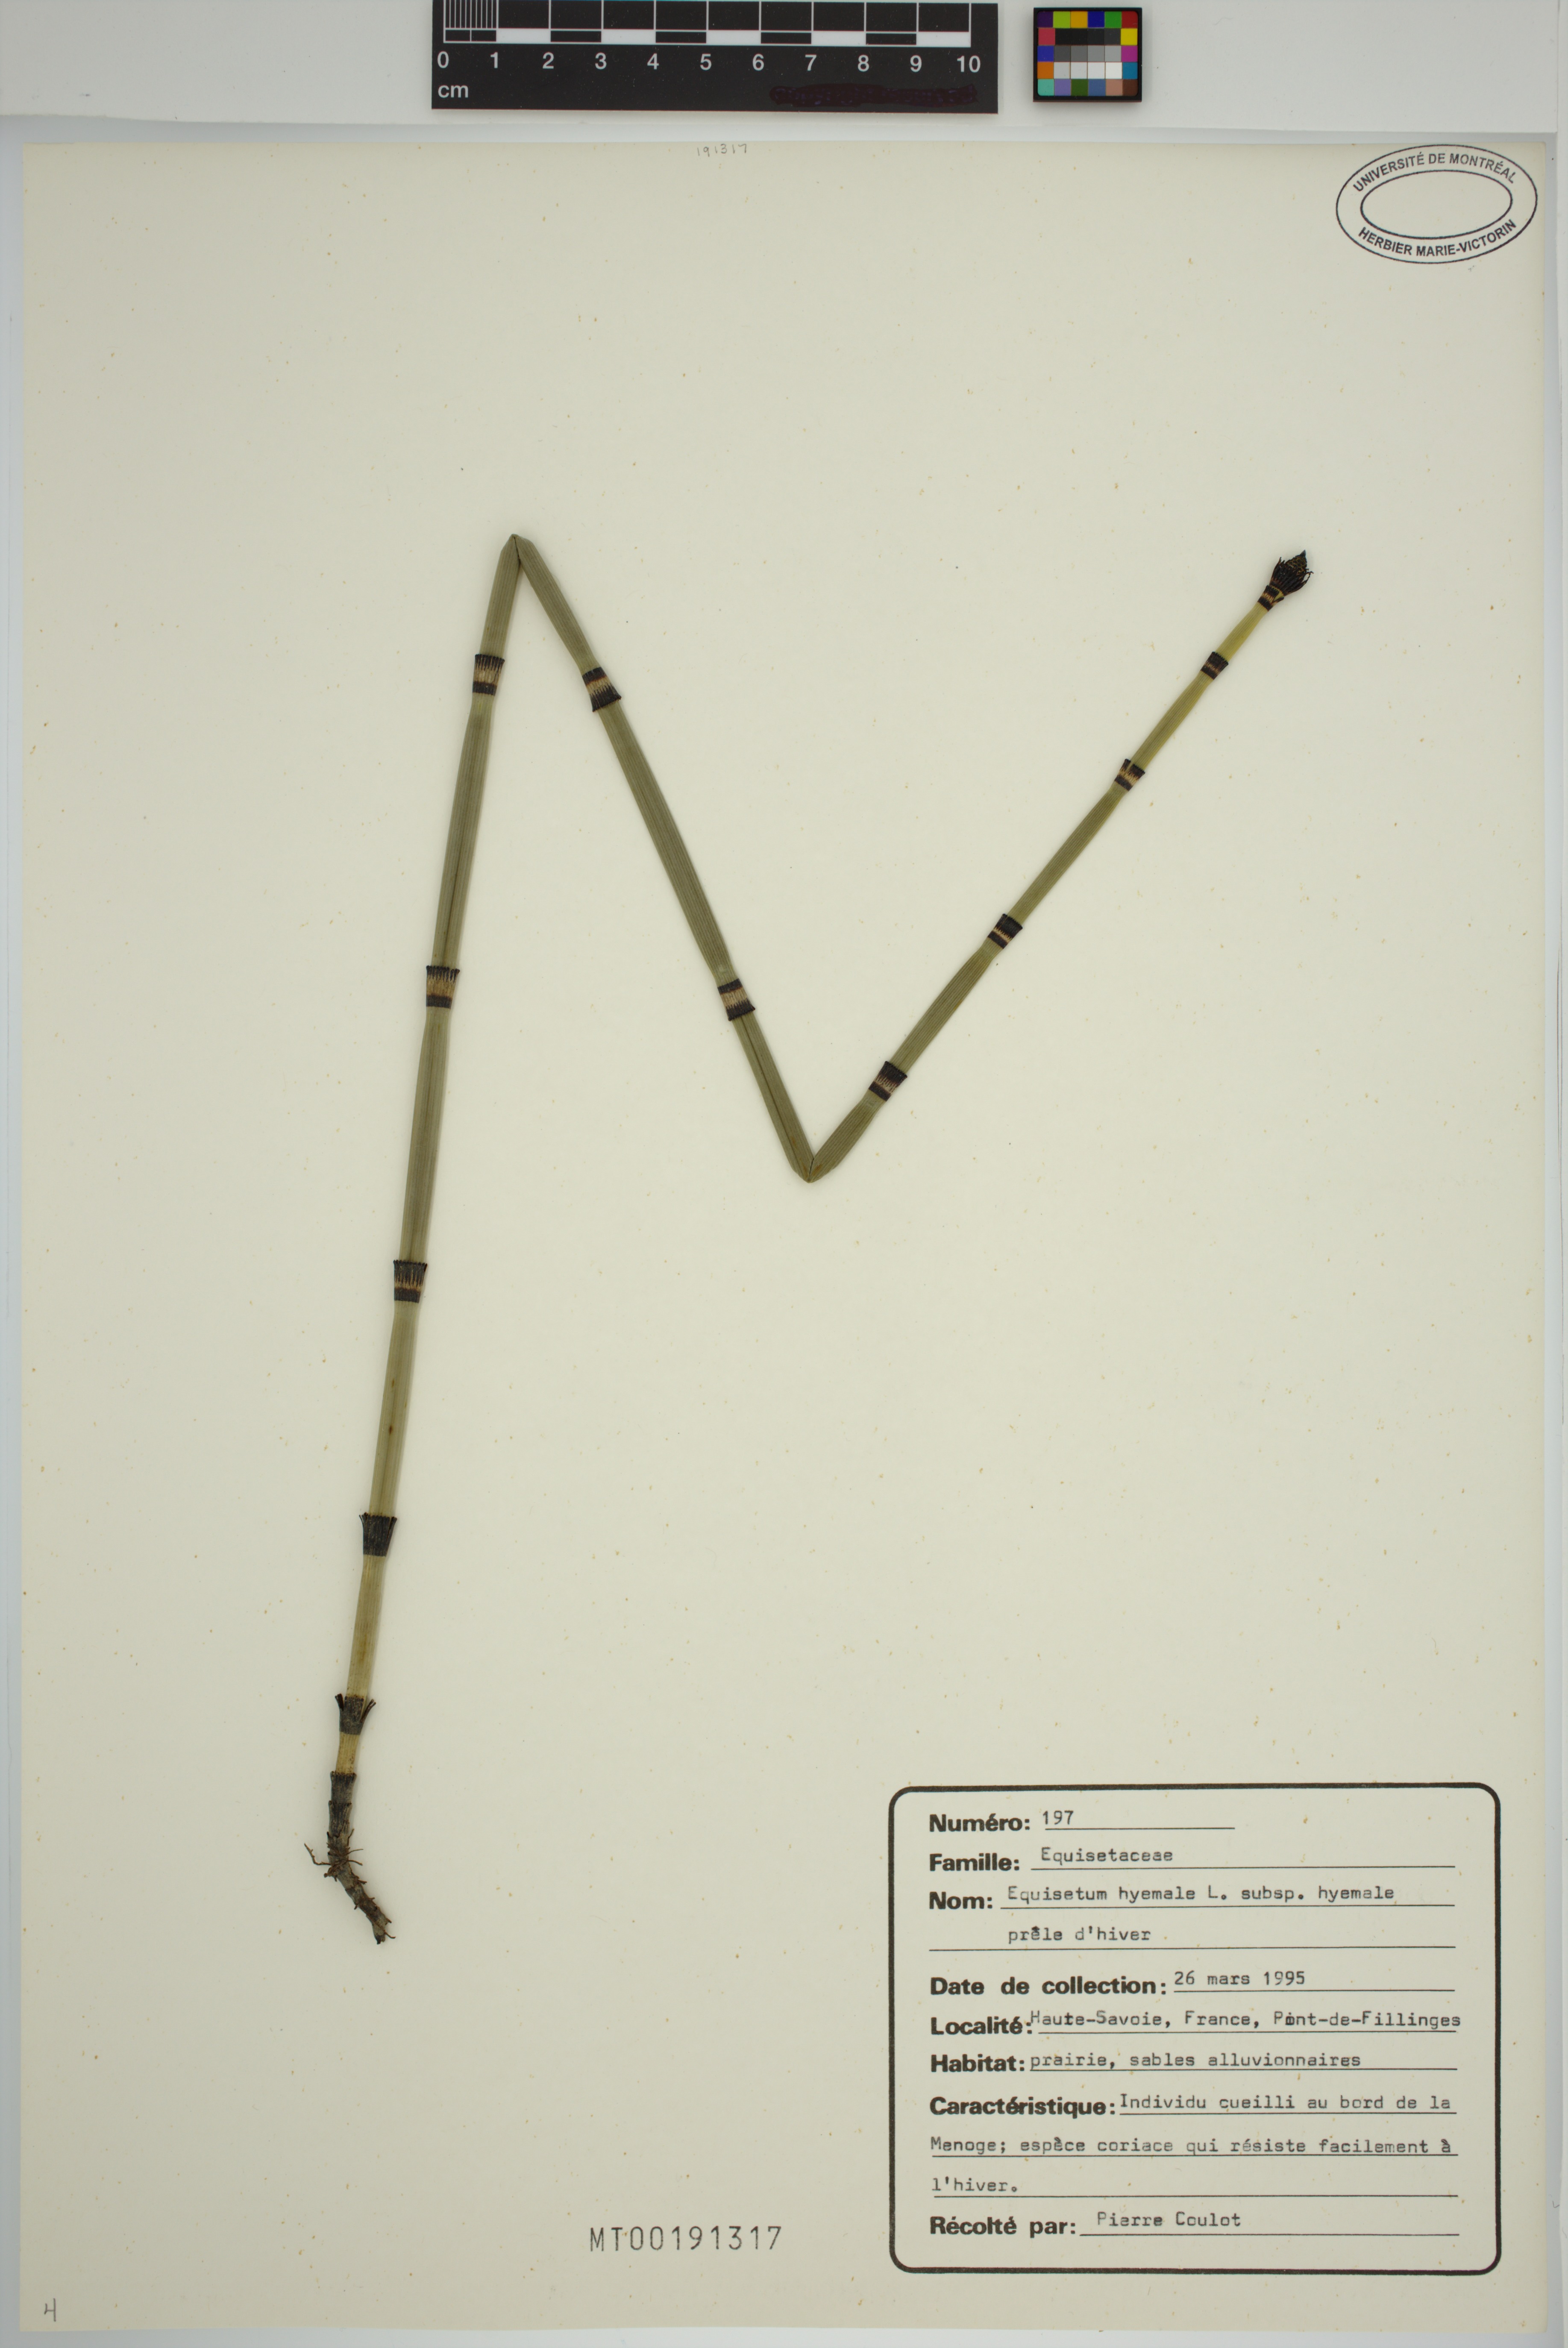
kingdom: Plantae
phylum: Tracheophyta
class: Polypodiopsida
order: Equisetales
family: Equisetaceae
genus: Equisetum
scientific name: Equisetum hyemale
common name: Rough horsetail
